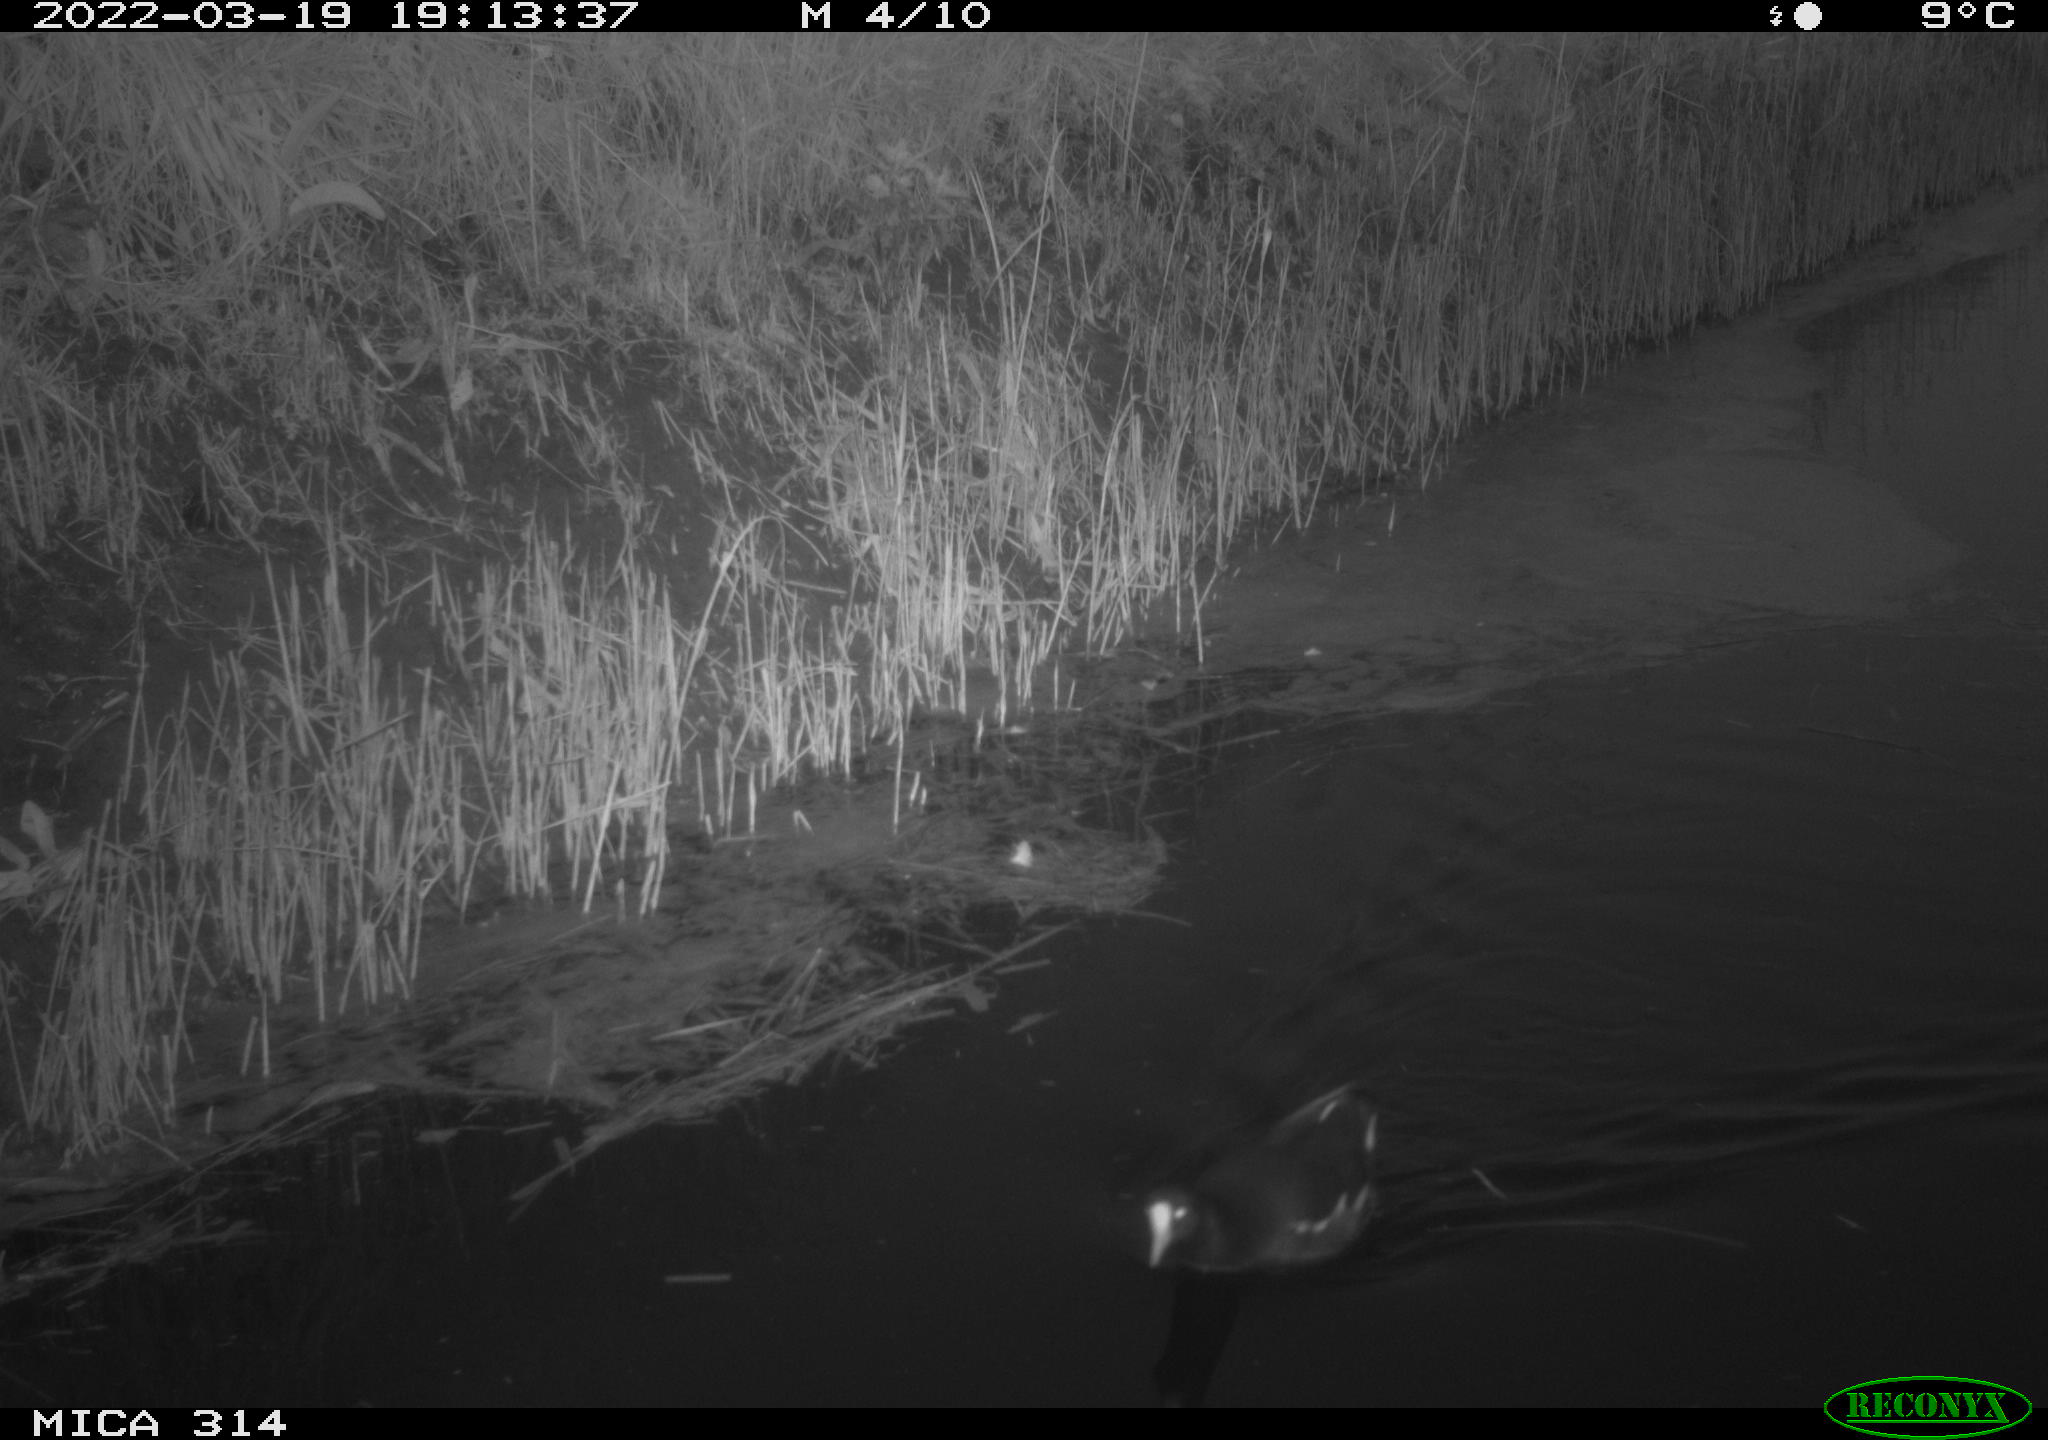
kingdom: Animalia
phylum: Chordata
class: Aves
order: Gruiformes
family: Rallidae
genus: Gallinula
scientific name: Gallinula chloropus
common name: Common moorhen
